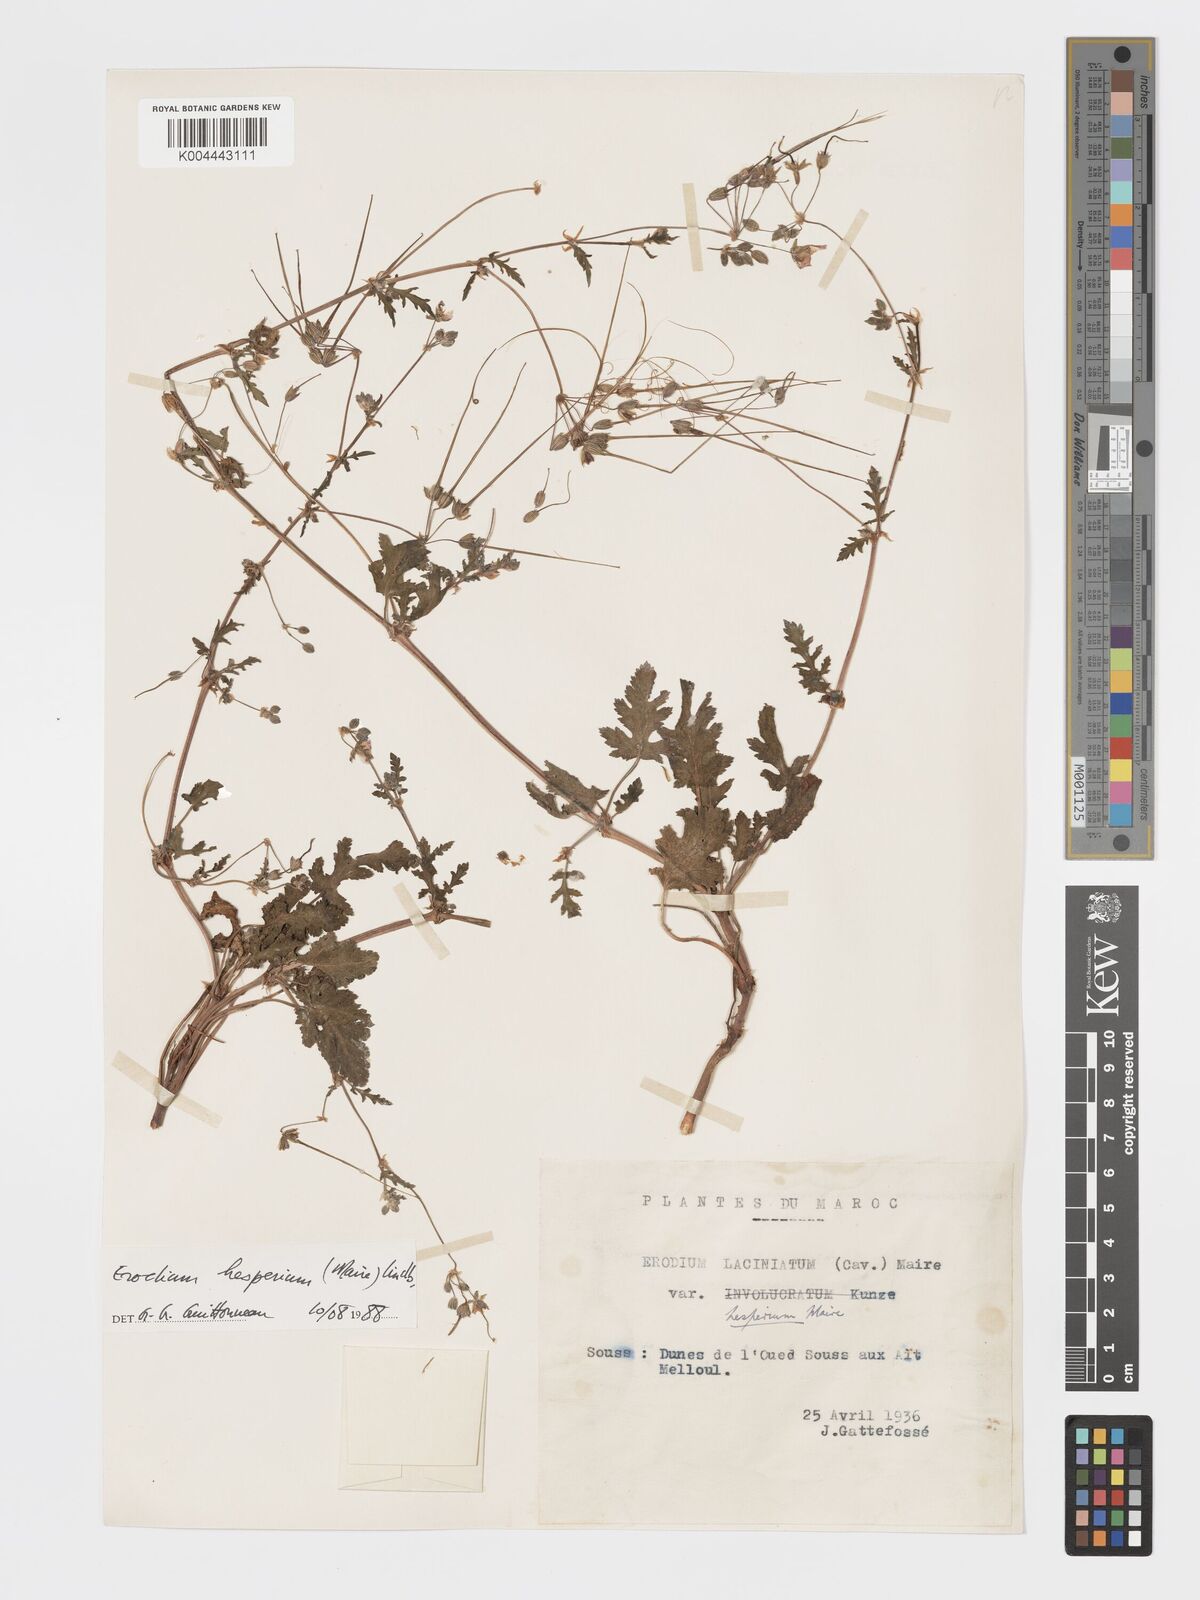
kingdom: Plantae
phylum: Tracheophyta
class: Magnoliopsida
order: Geraniales
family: Geraniaceae
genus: Erodium
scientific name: Erodium hesperium
